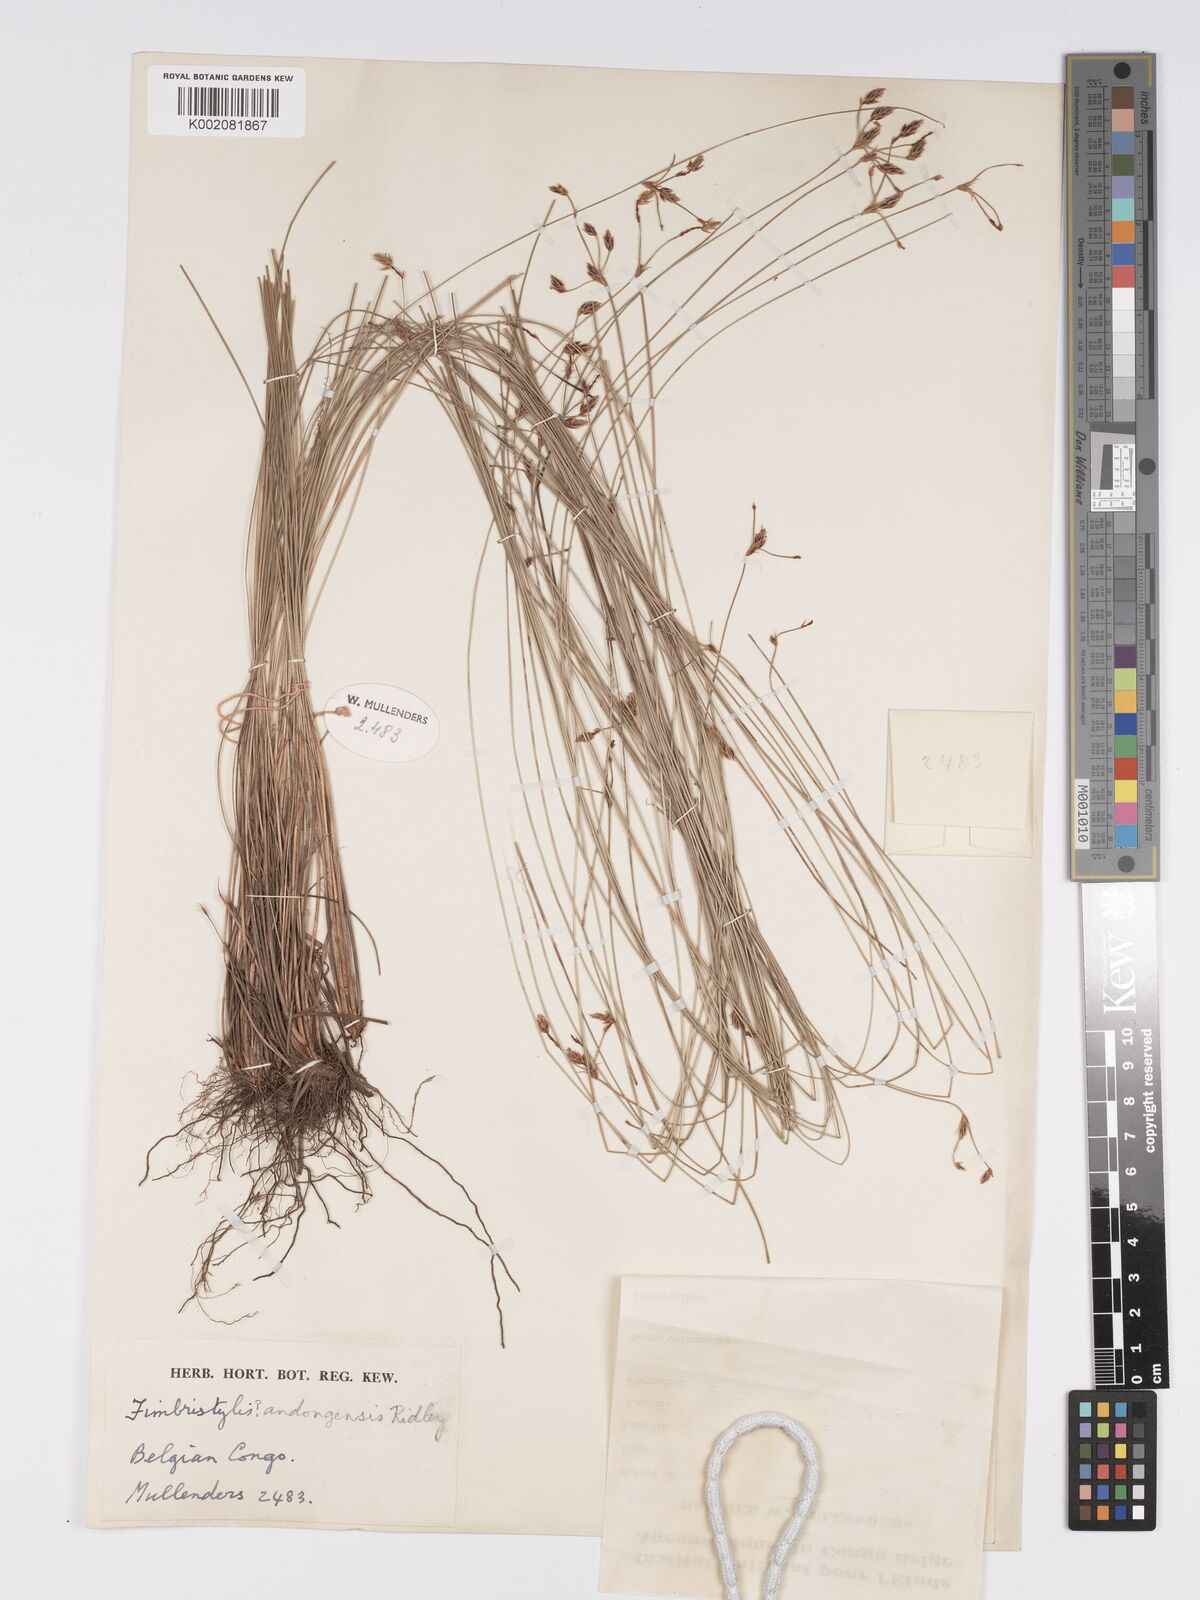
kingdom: Plantae
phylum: Tracheophyta
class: Liliopsida
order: Poales
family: Cyperaceae
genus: Bulbostylis
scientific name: Bulbostylis hispidula
